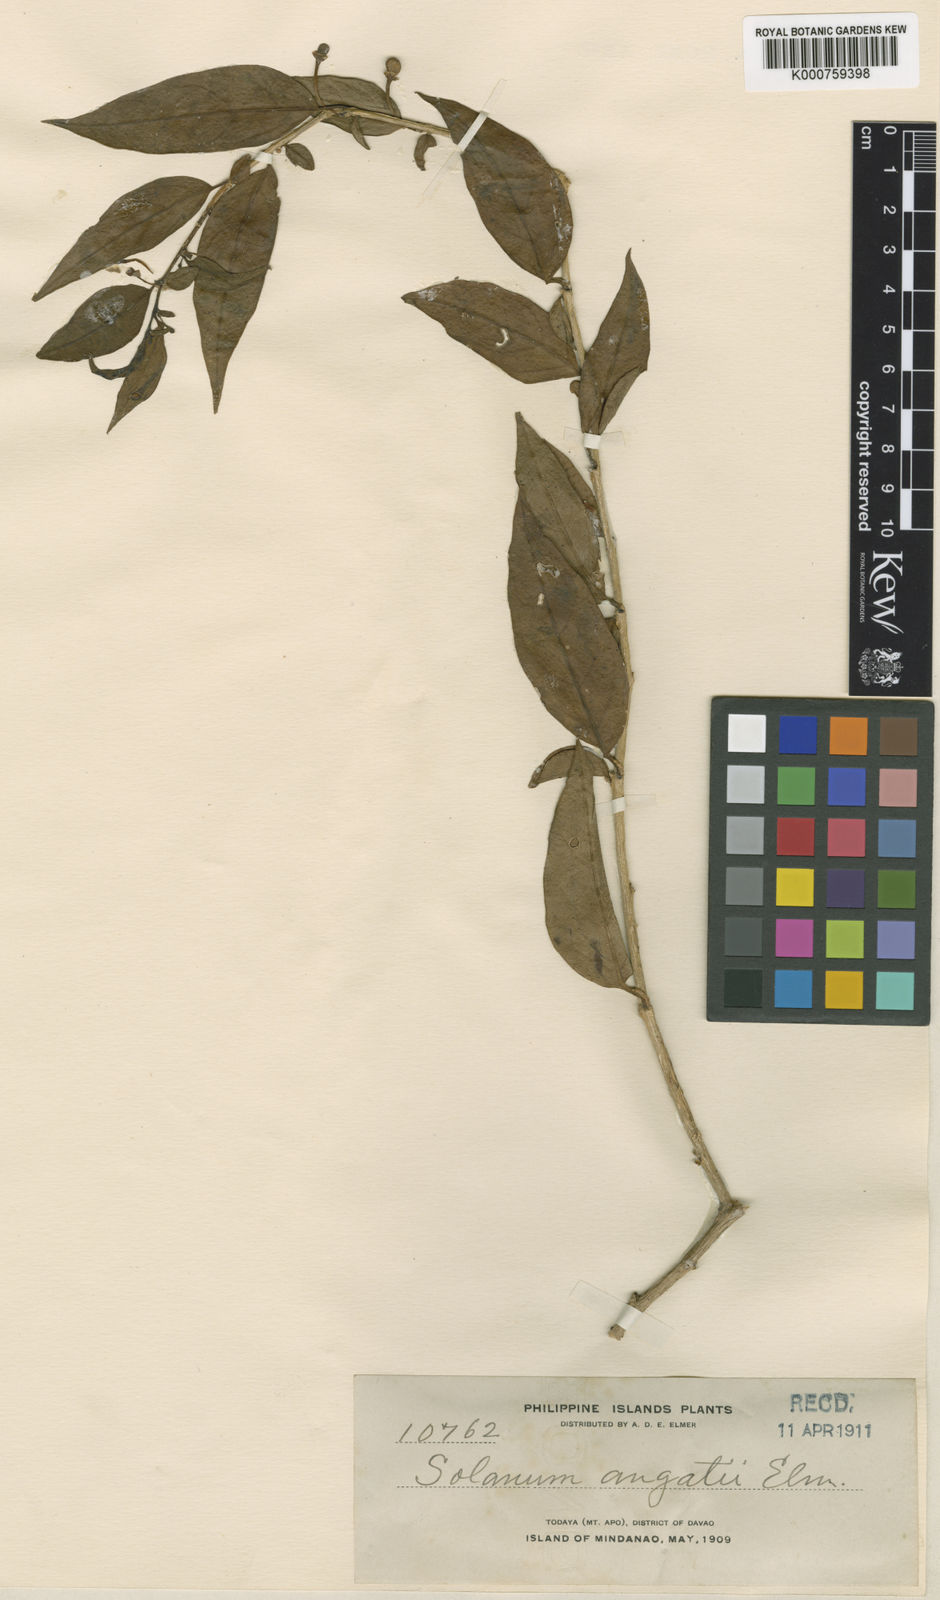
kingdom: Plantae
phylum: Tracheophyta
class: Magnoliopsida
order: Solanales
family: Solanaceae
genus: Lycianthes
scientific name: Lycianthes parasitica
